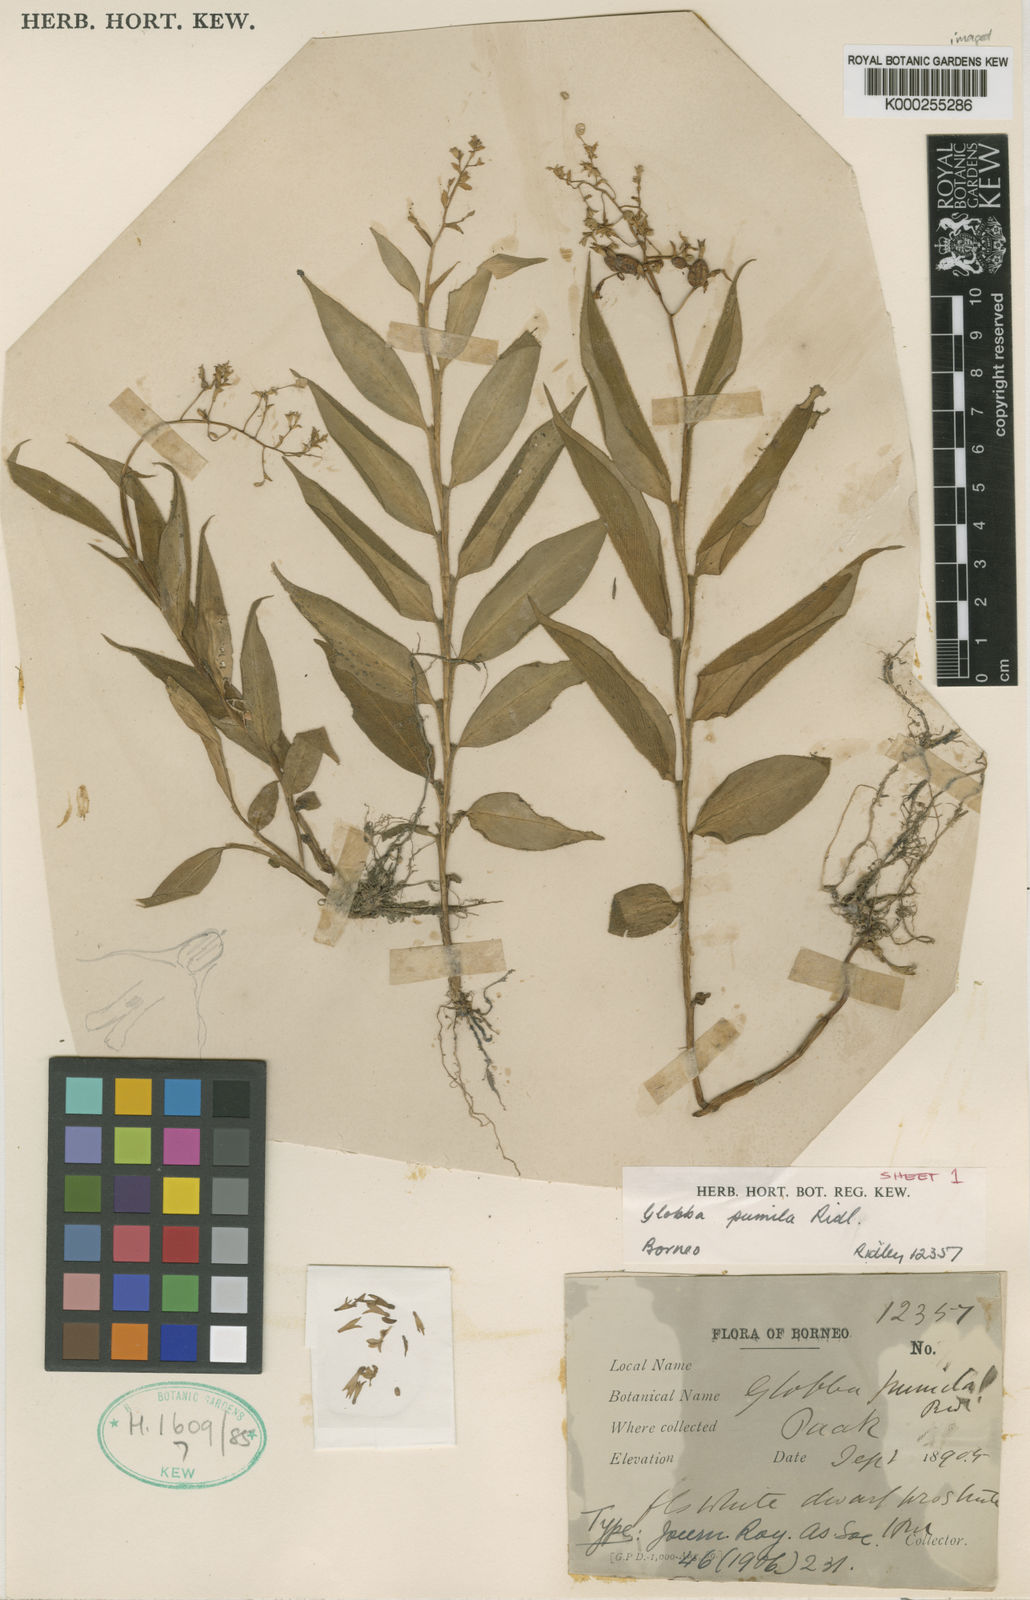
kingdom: Plantae
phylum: Tracheophyta
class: Liliopsida
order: Zingiberales
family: Zingiberaceae
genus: Globba
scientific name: Globba pumila
